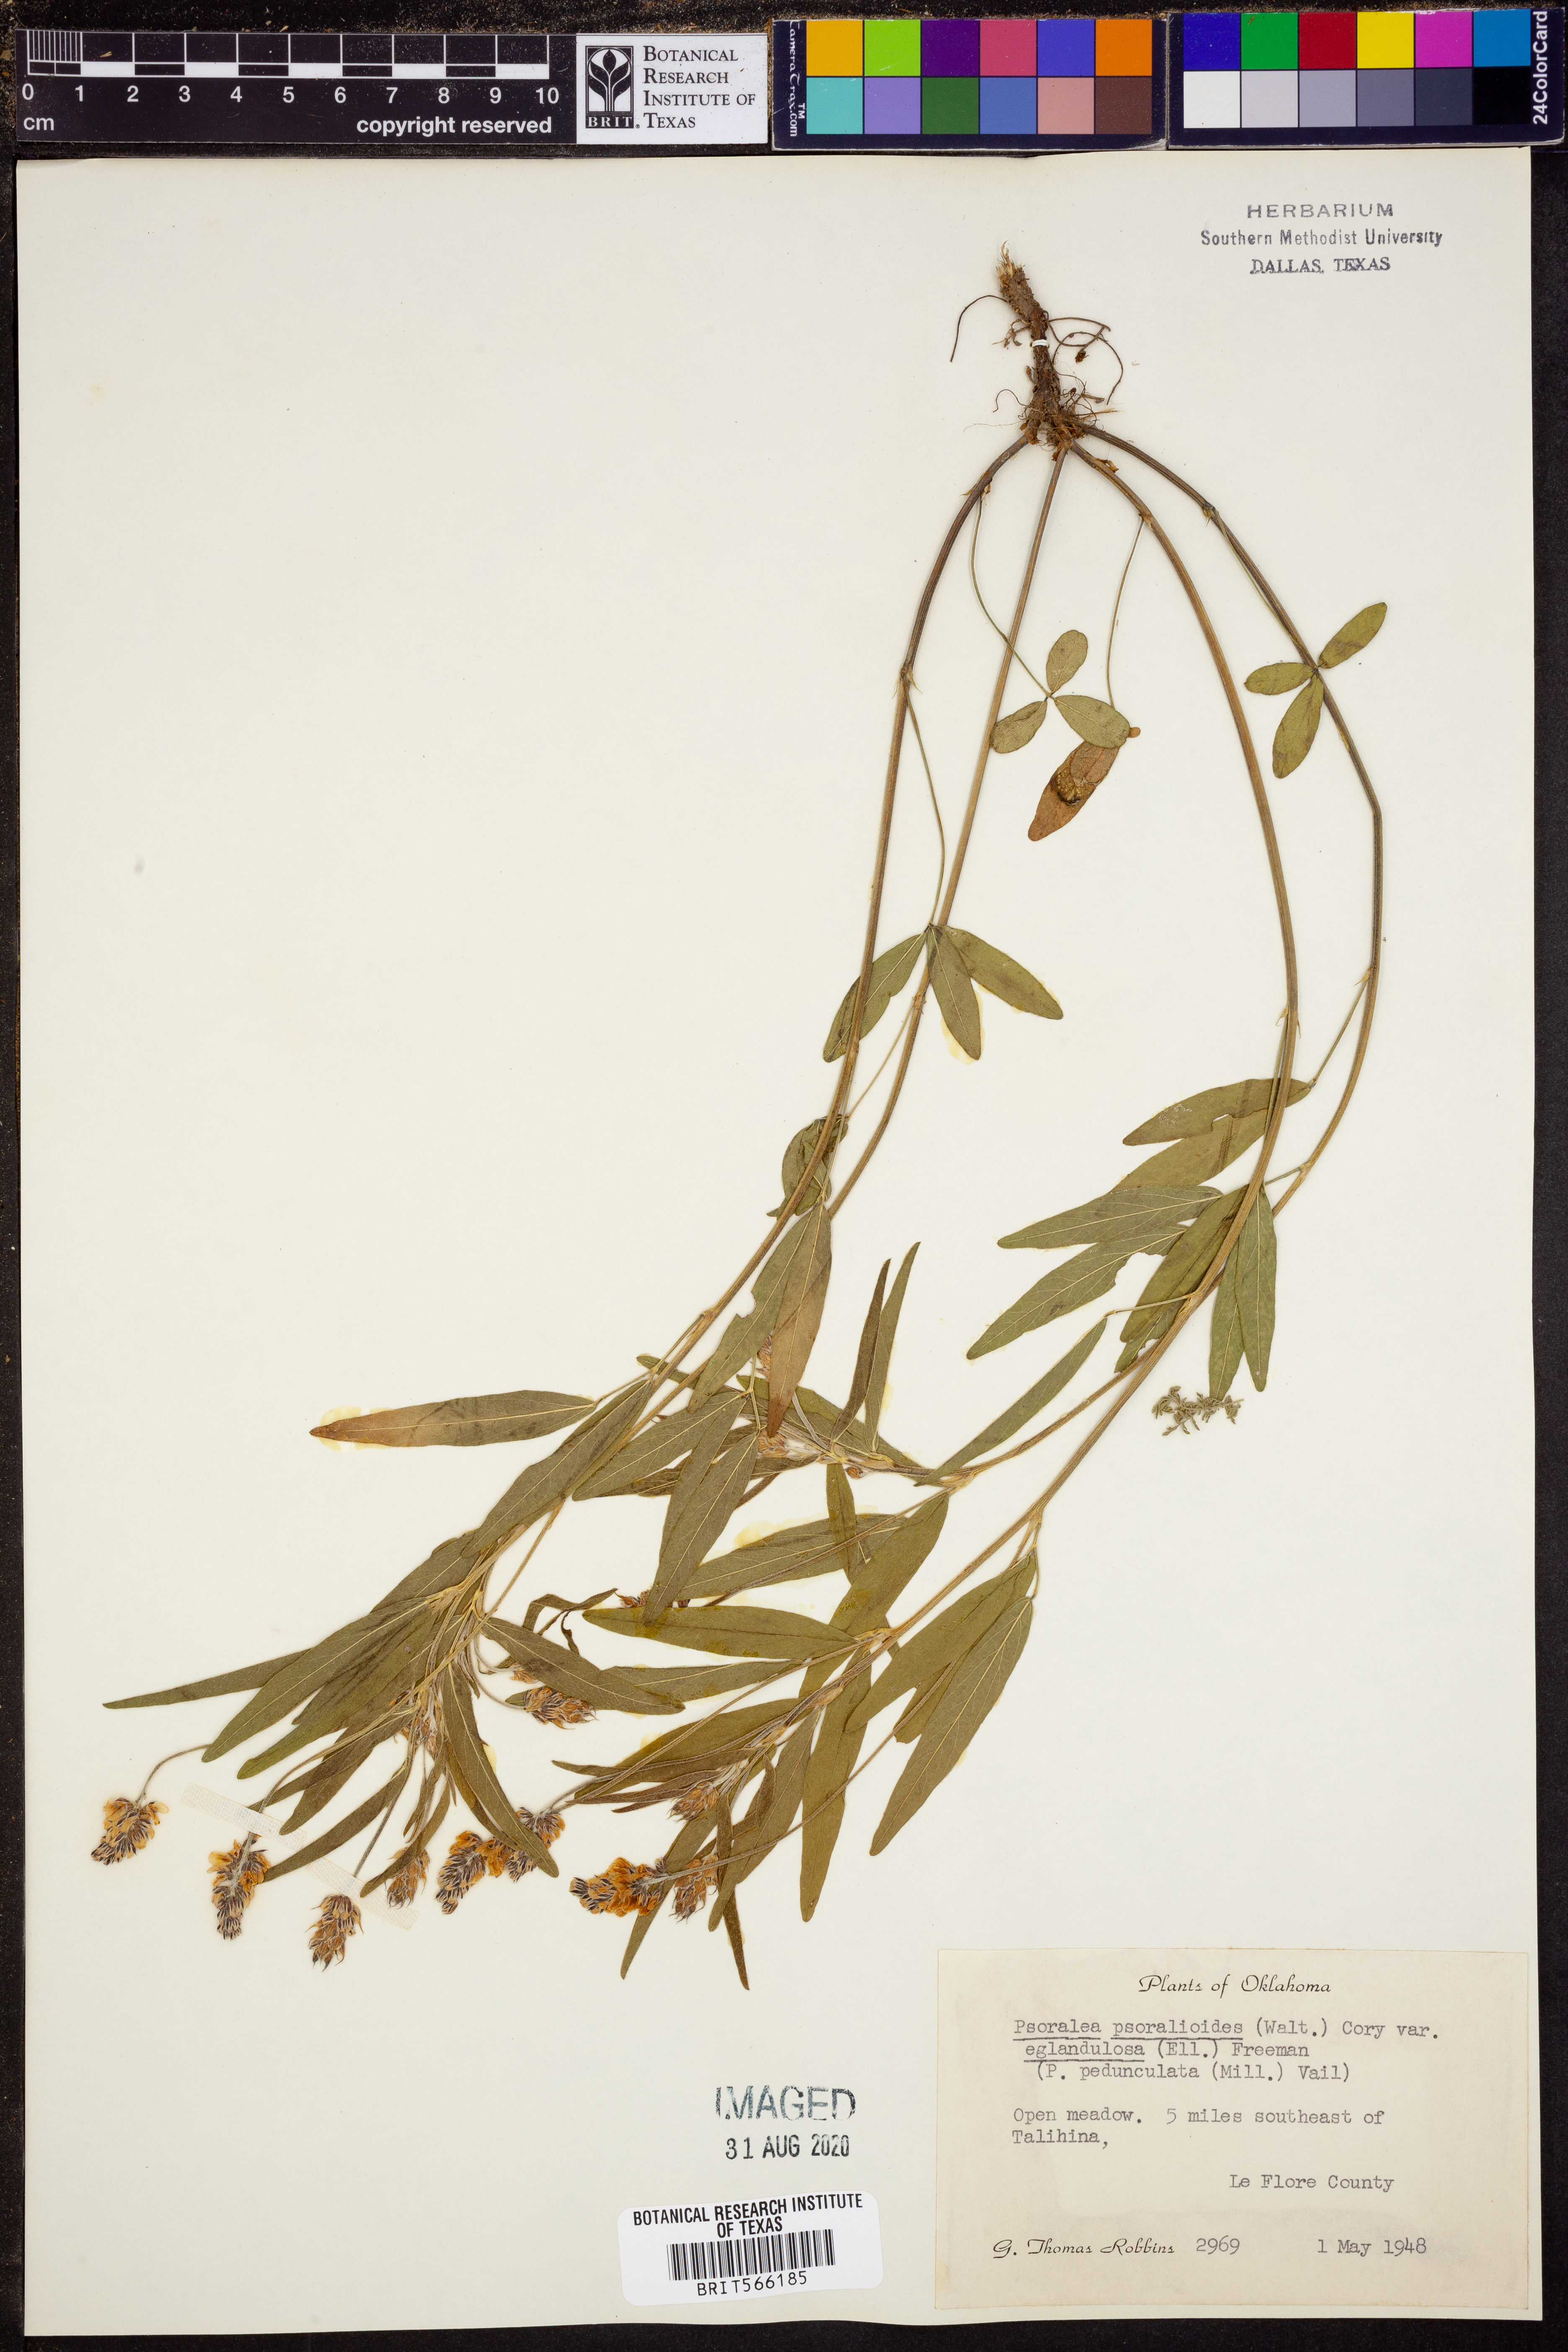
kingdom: Plantae
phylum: Tracheophyta
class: Magnoliopsida
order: Fabales
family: Fabaceae
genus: Orbexilum
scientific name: Orbexilum pedunculatum
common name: Sampson's snakeroot
